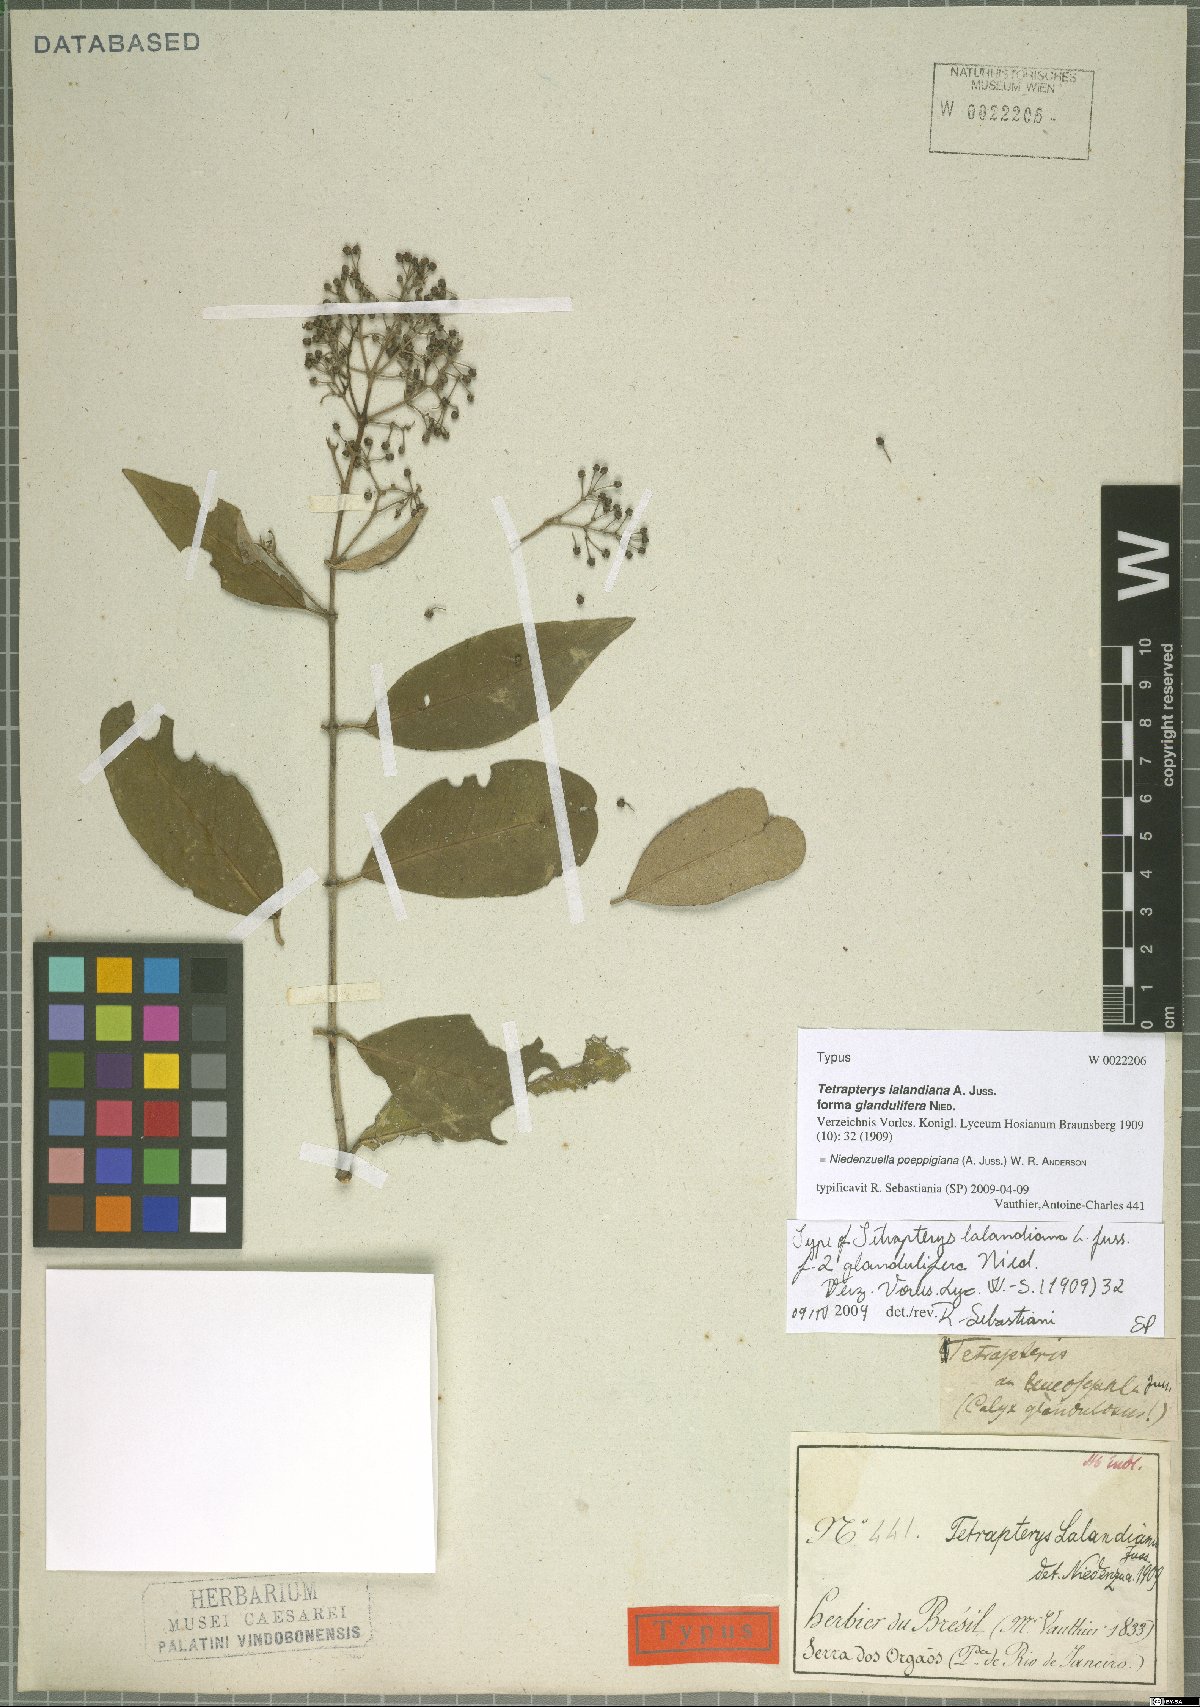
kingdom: Plantae
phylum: Tracheophyta
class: Magnoliopsida
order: Malpighiales
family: Malpighiaceae
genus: Niedenzuella
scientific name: Niedenzuella poeppigiana
